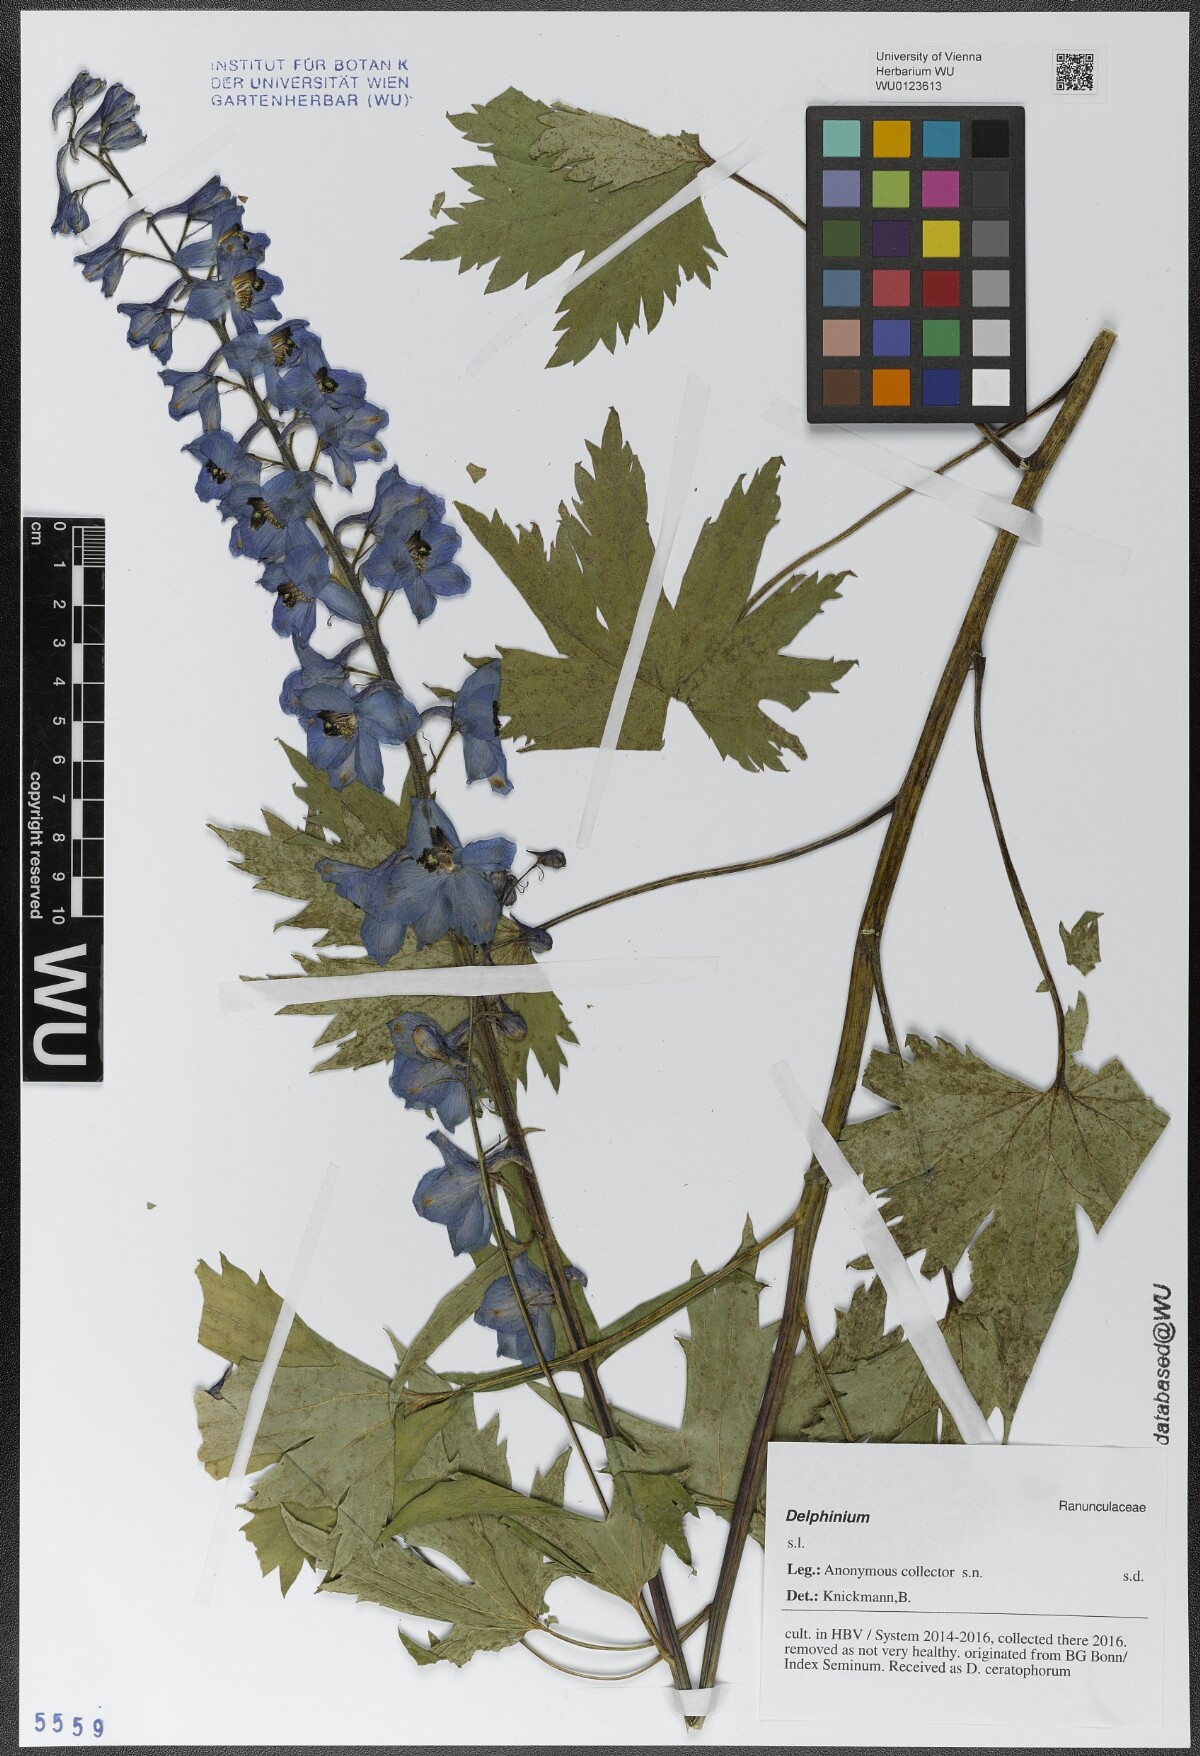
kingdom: Plantae
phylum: Tracheophyta
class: Magnoliopsida
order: Ranunculales
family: Ranunculaceae
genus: Delphinium
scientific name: Delphinium
